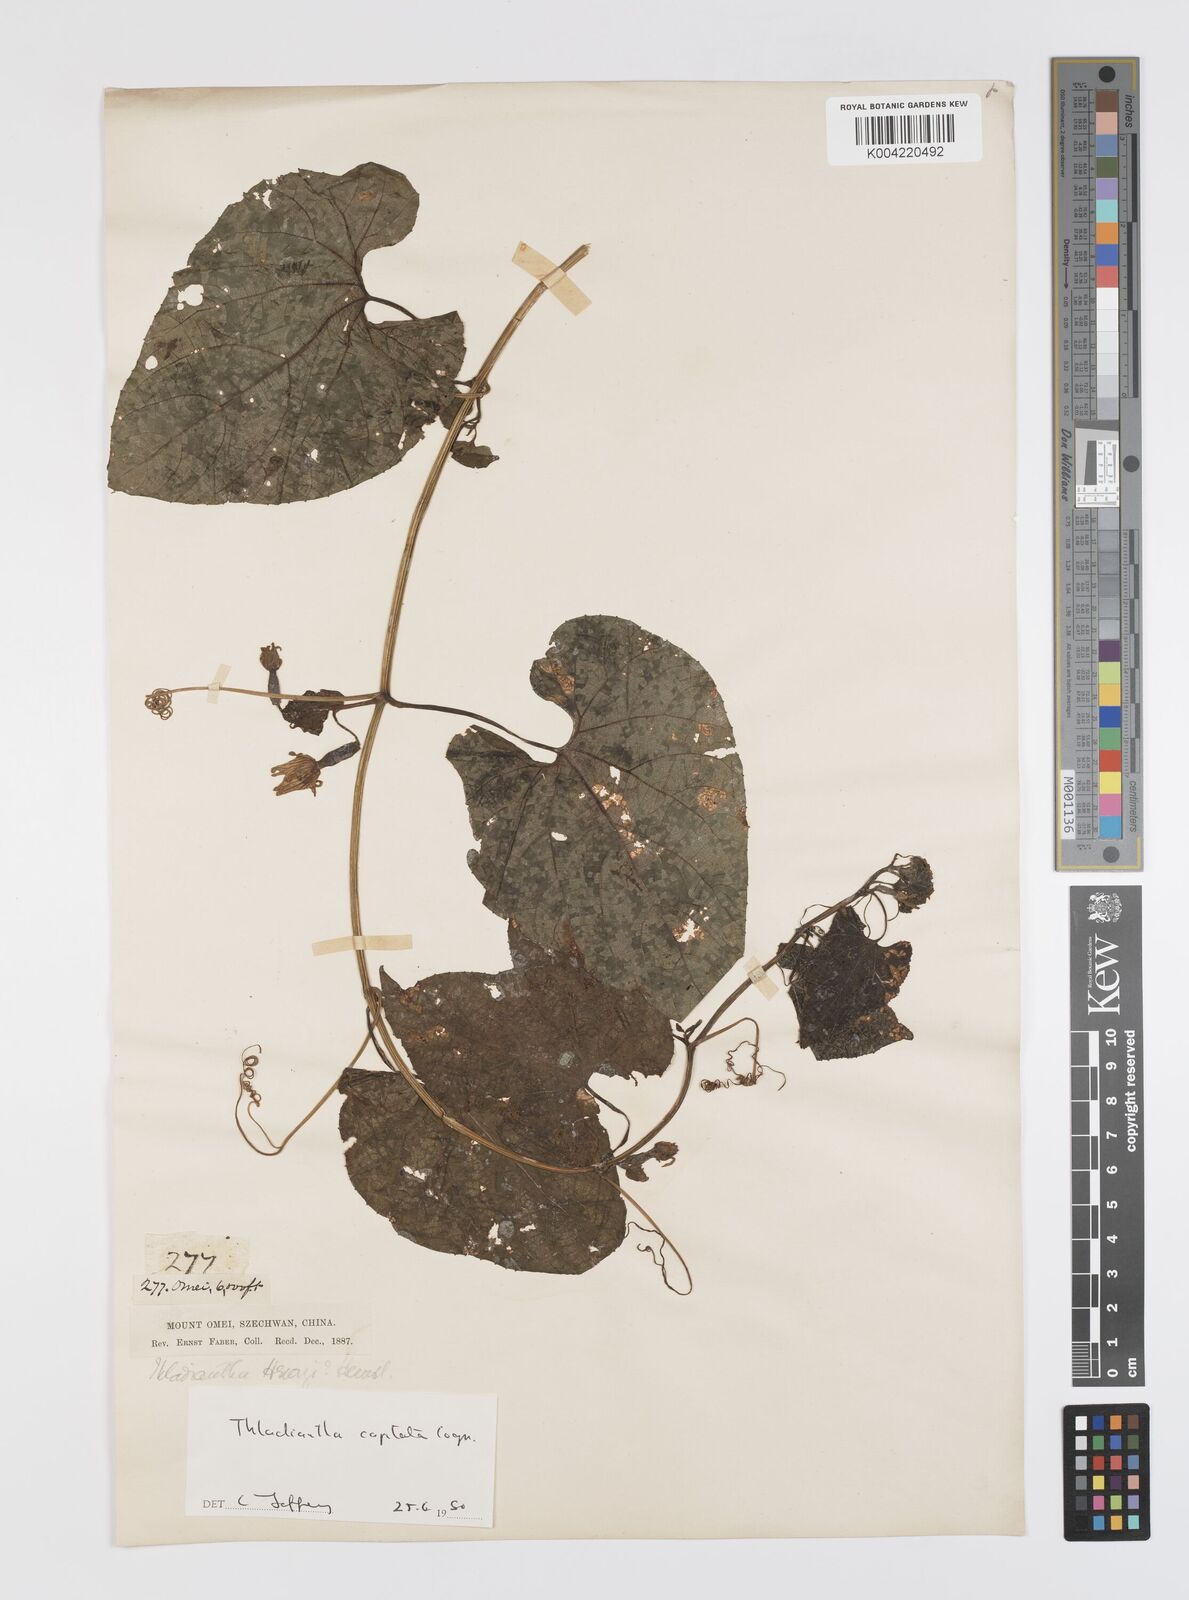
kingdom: Plantae
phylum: Tracheophyta
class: Magnoliopsida
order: Cucurbitales
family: Cucurbitaceae
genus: Thladiantha
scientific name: Thladiantha capitata
